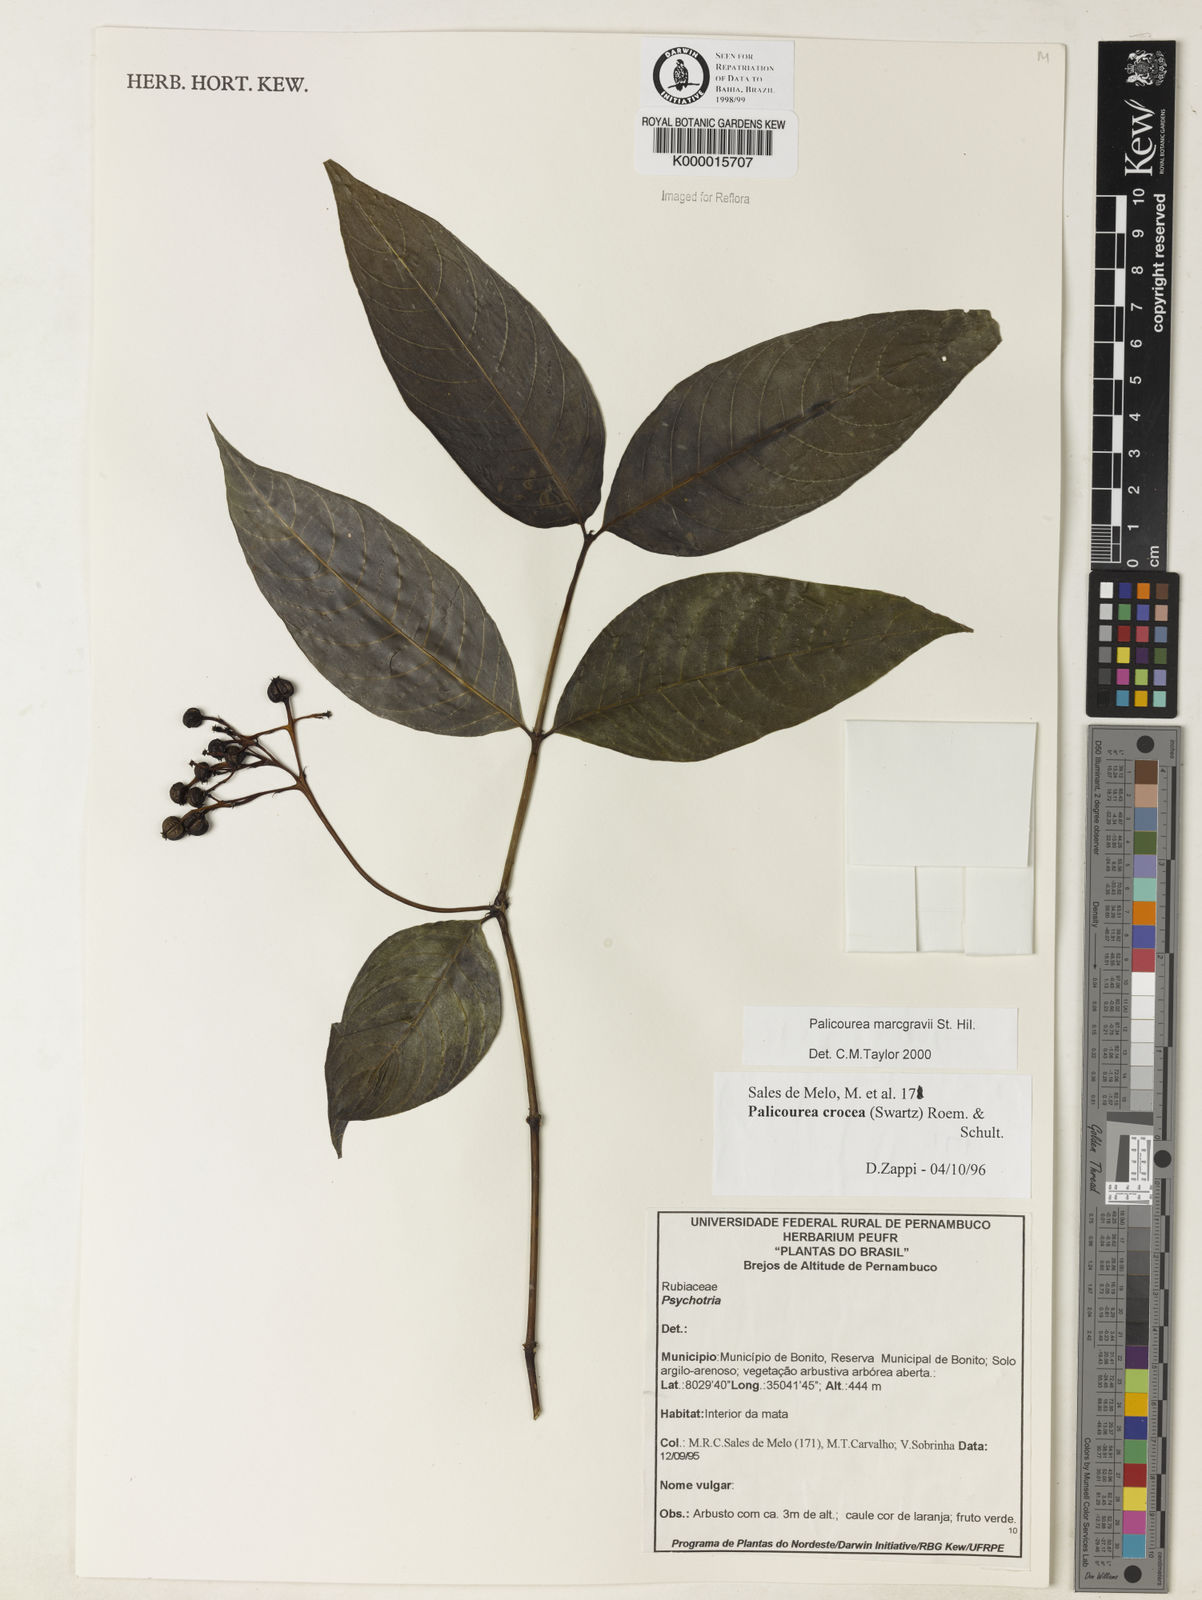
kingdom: Plantae
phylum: Tracheophyta
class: Magnoliopsida
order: Gentianales
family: Rubiaceae
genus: Palicourea
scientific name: Palicourea marcgravii
